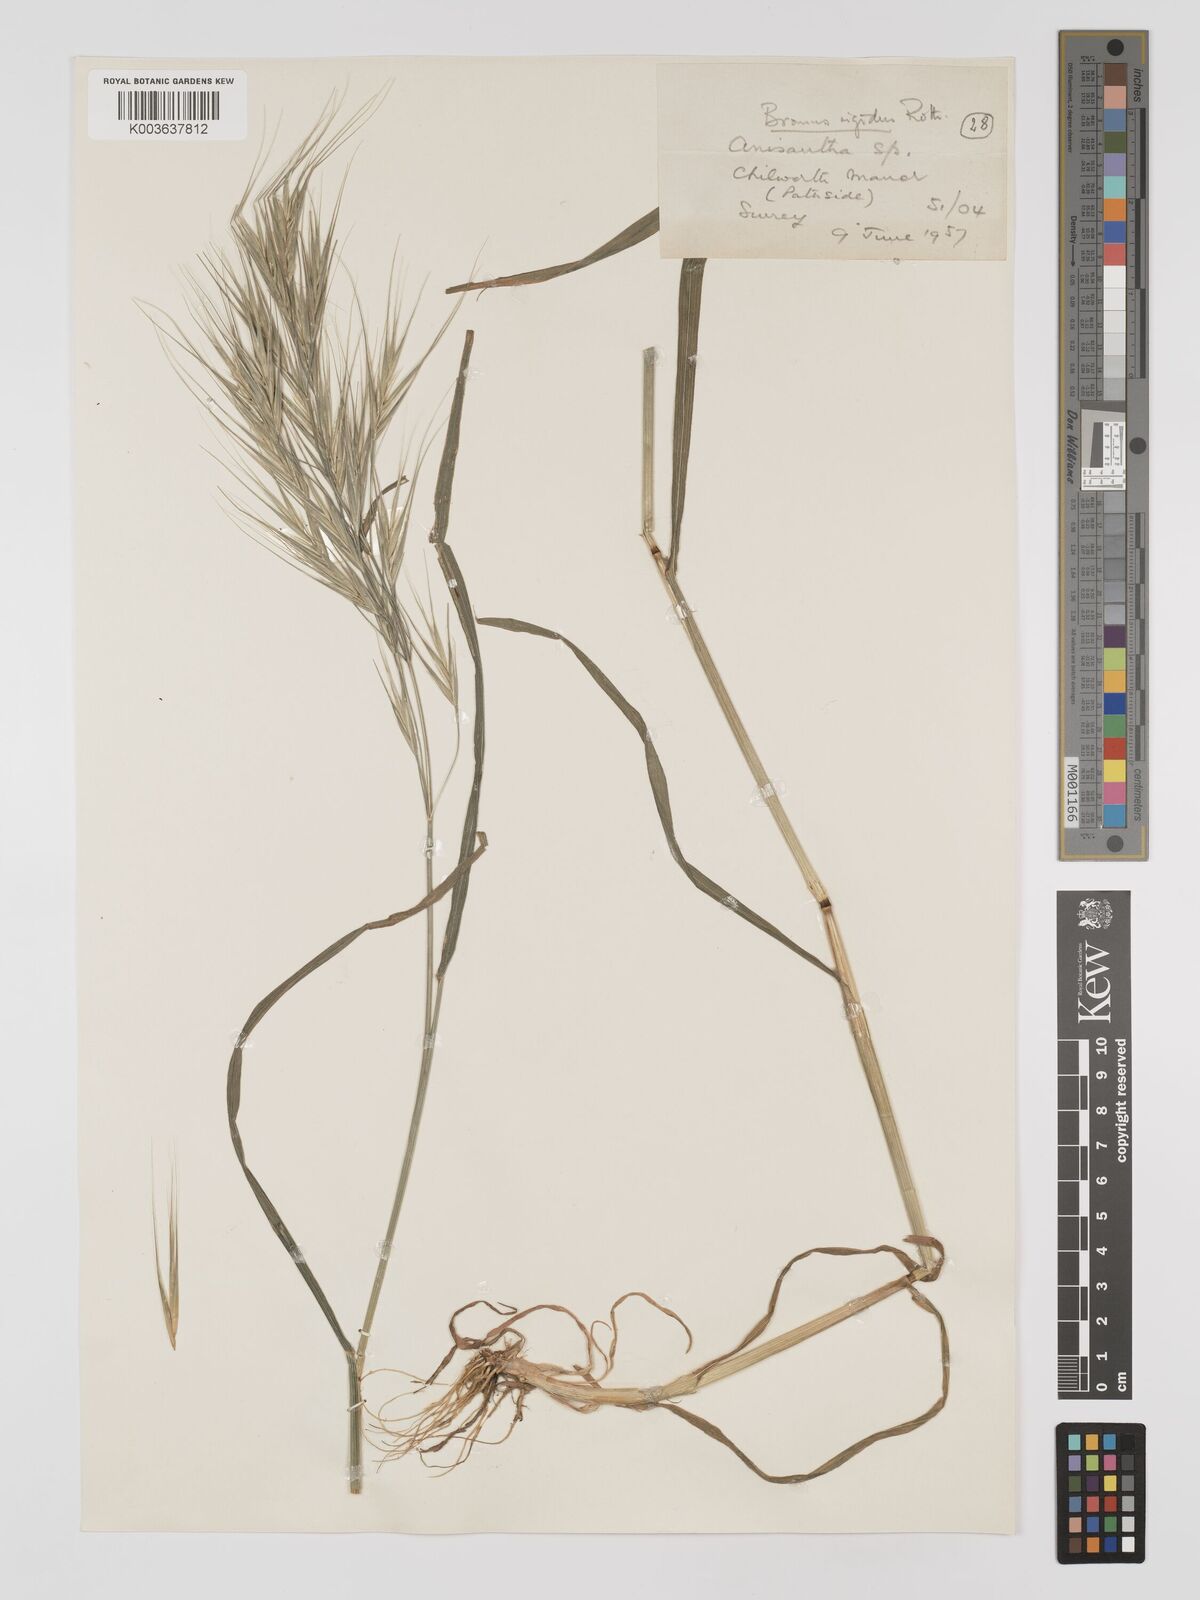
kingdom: Plantae
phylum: Tracheophyta
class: Liliopsida
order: Poales
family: Poaceae
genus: Bromus
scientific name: Bromus
